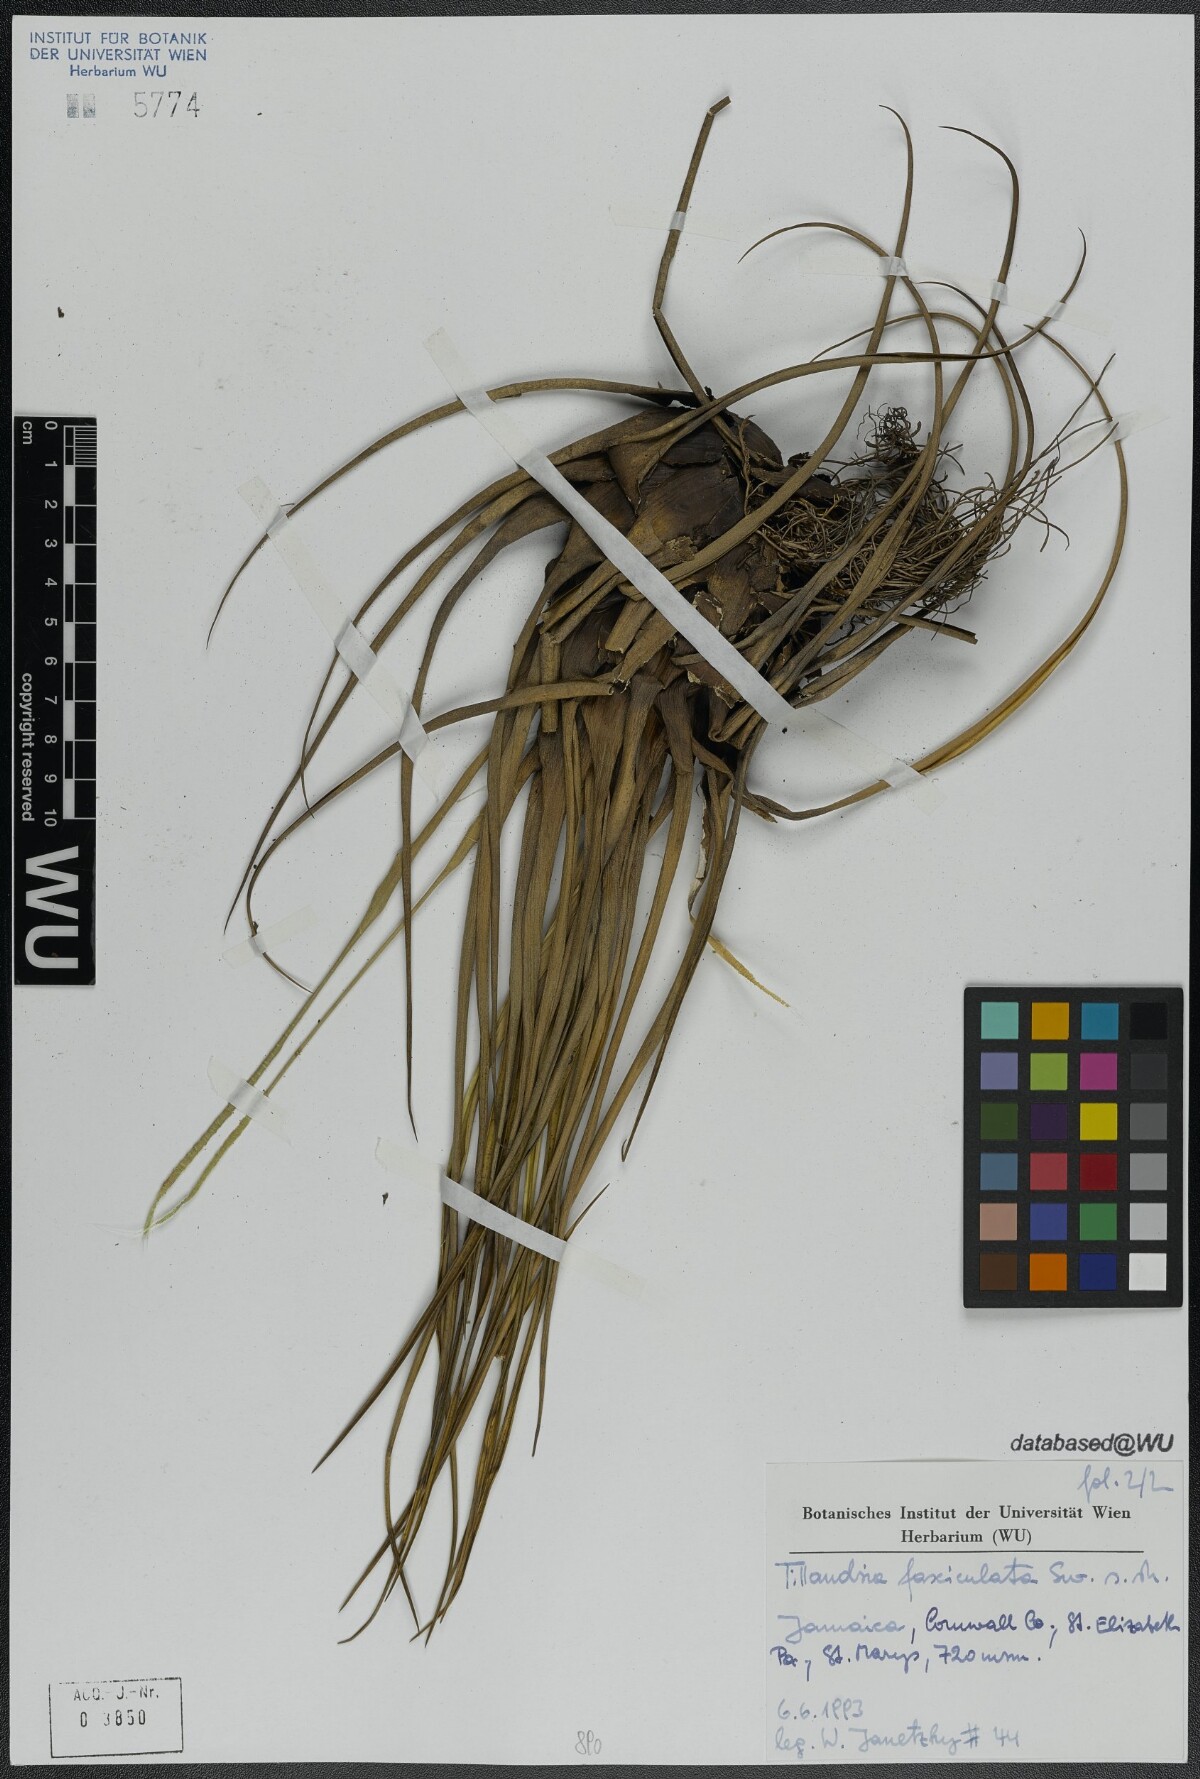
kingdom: Plantae
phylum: Tracheophyta
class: Liliopsida
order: Poales
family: Bromeliaceae
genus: Tillandsia
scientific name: Tillandsia fasciculata
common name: Giant airplant
